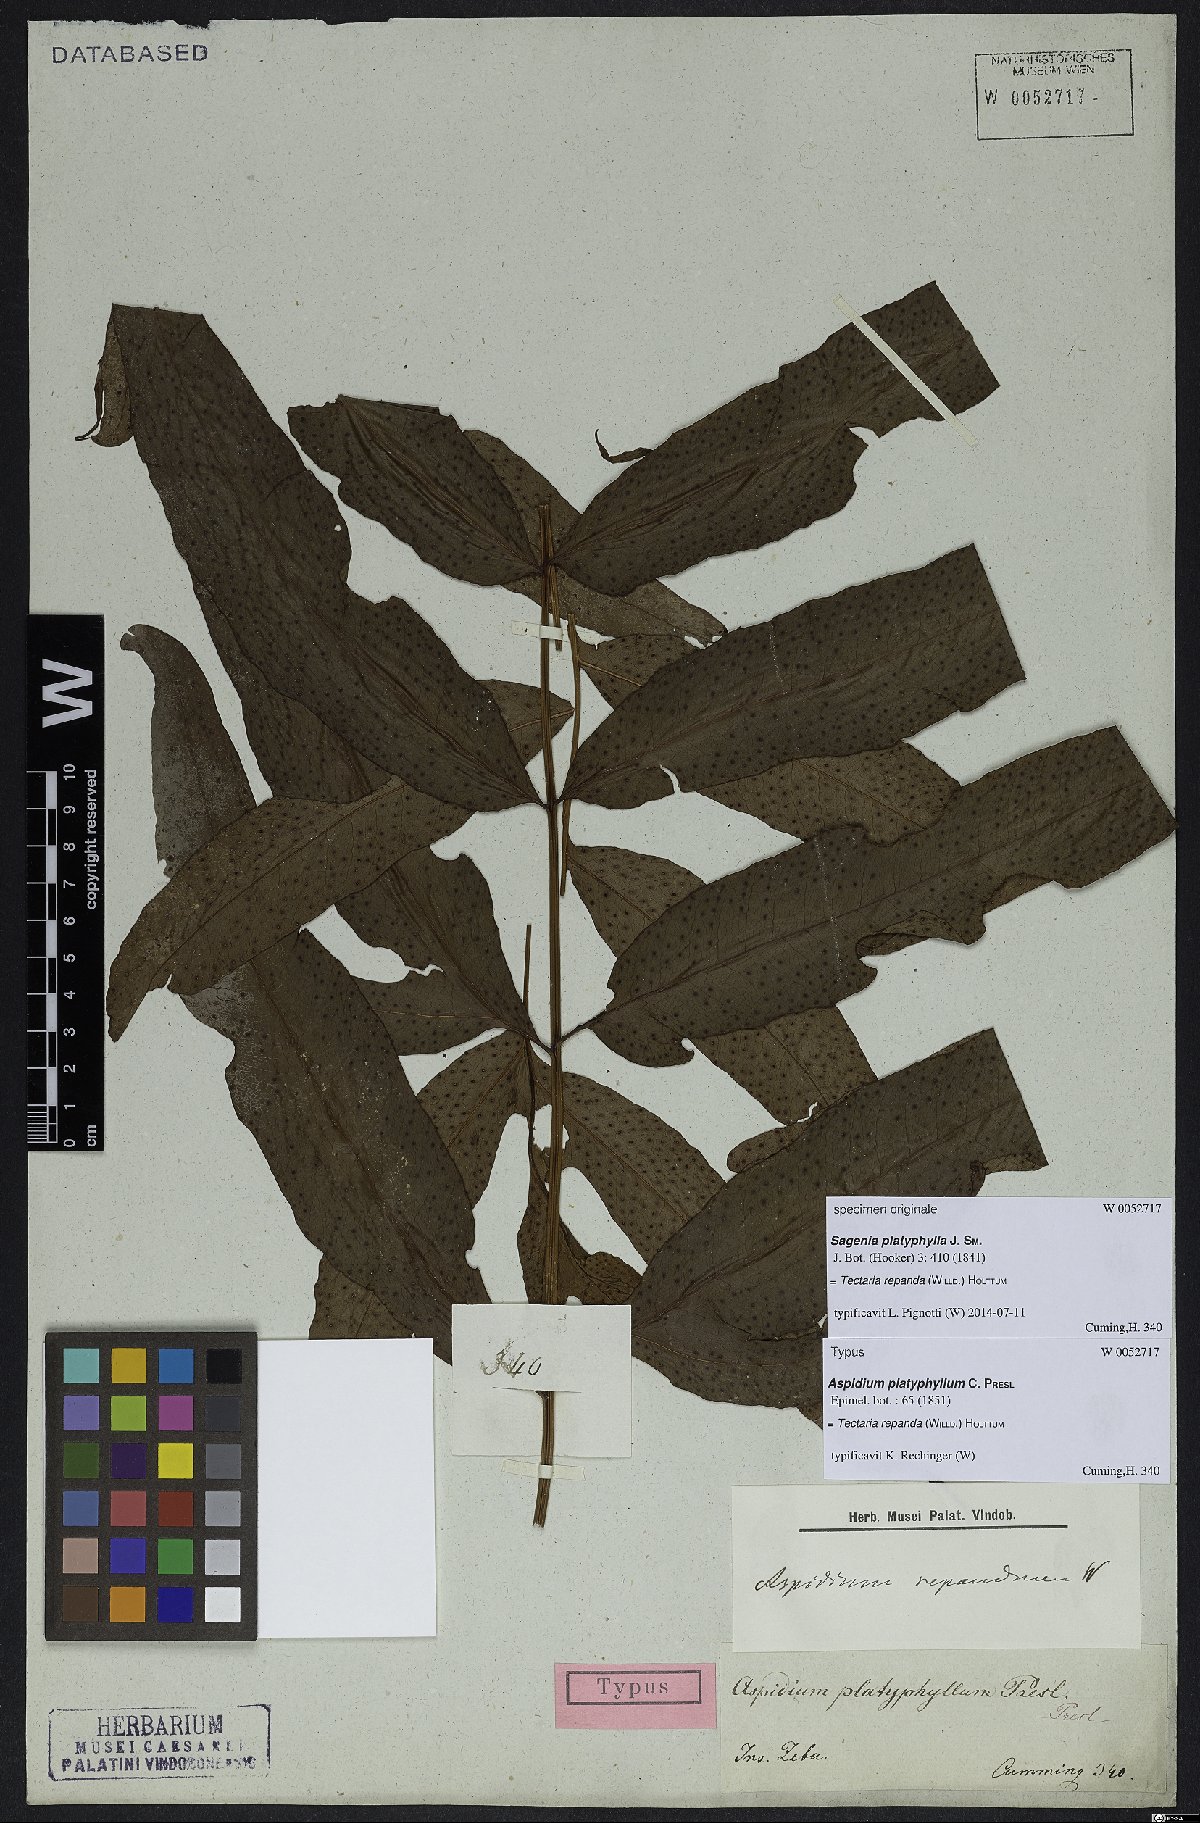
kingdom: Plantae
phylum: Tracheophyta
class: Polypodiopsida
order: Polypodiales
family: Tectariaceae
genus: Tectaria
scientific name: Tectaria repanda
